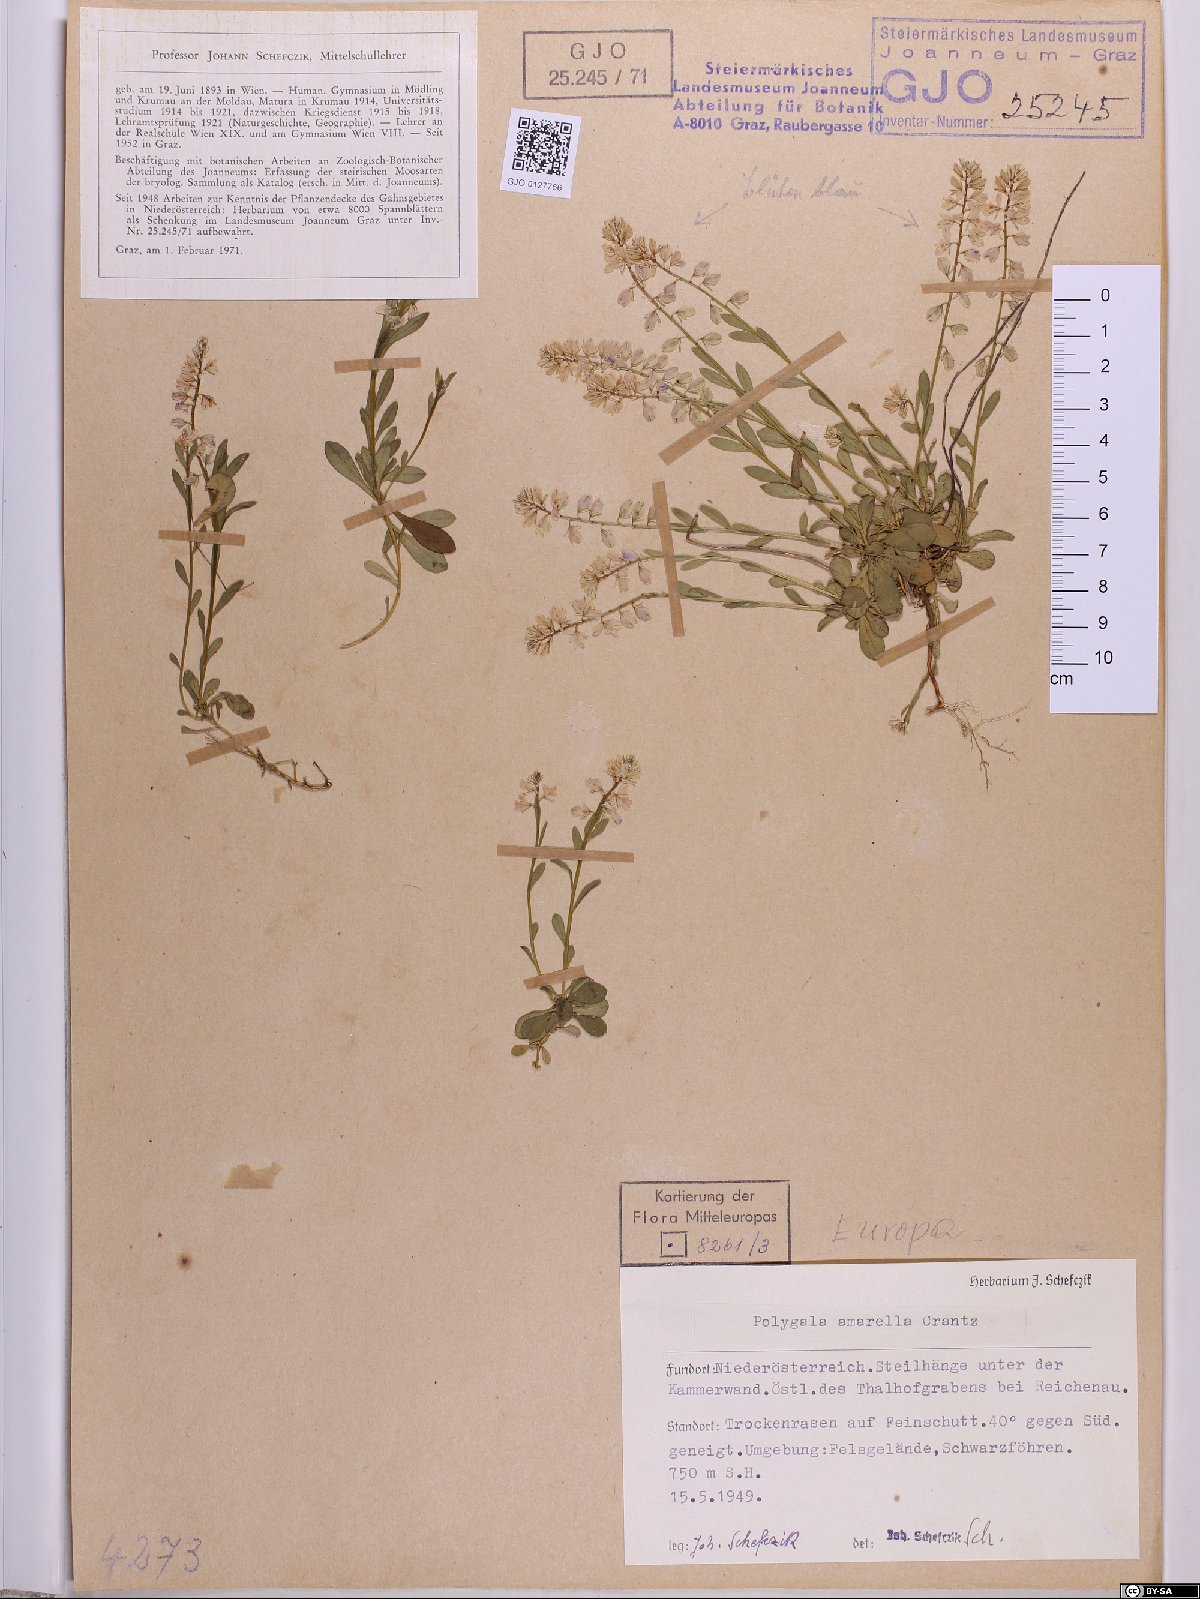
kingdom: Plantae
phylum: Tracheophyta
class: Magnoliopsida
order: Fabales
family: Polygalaceae
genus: Polygala
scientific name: Polygala amarella
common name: Dwarf milkwort
